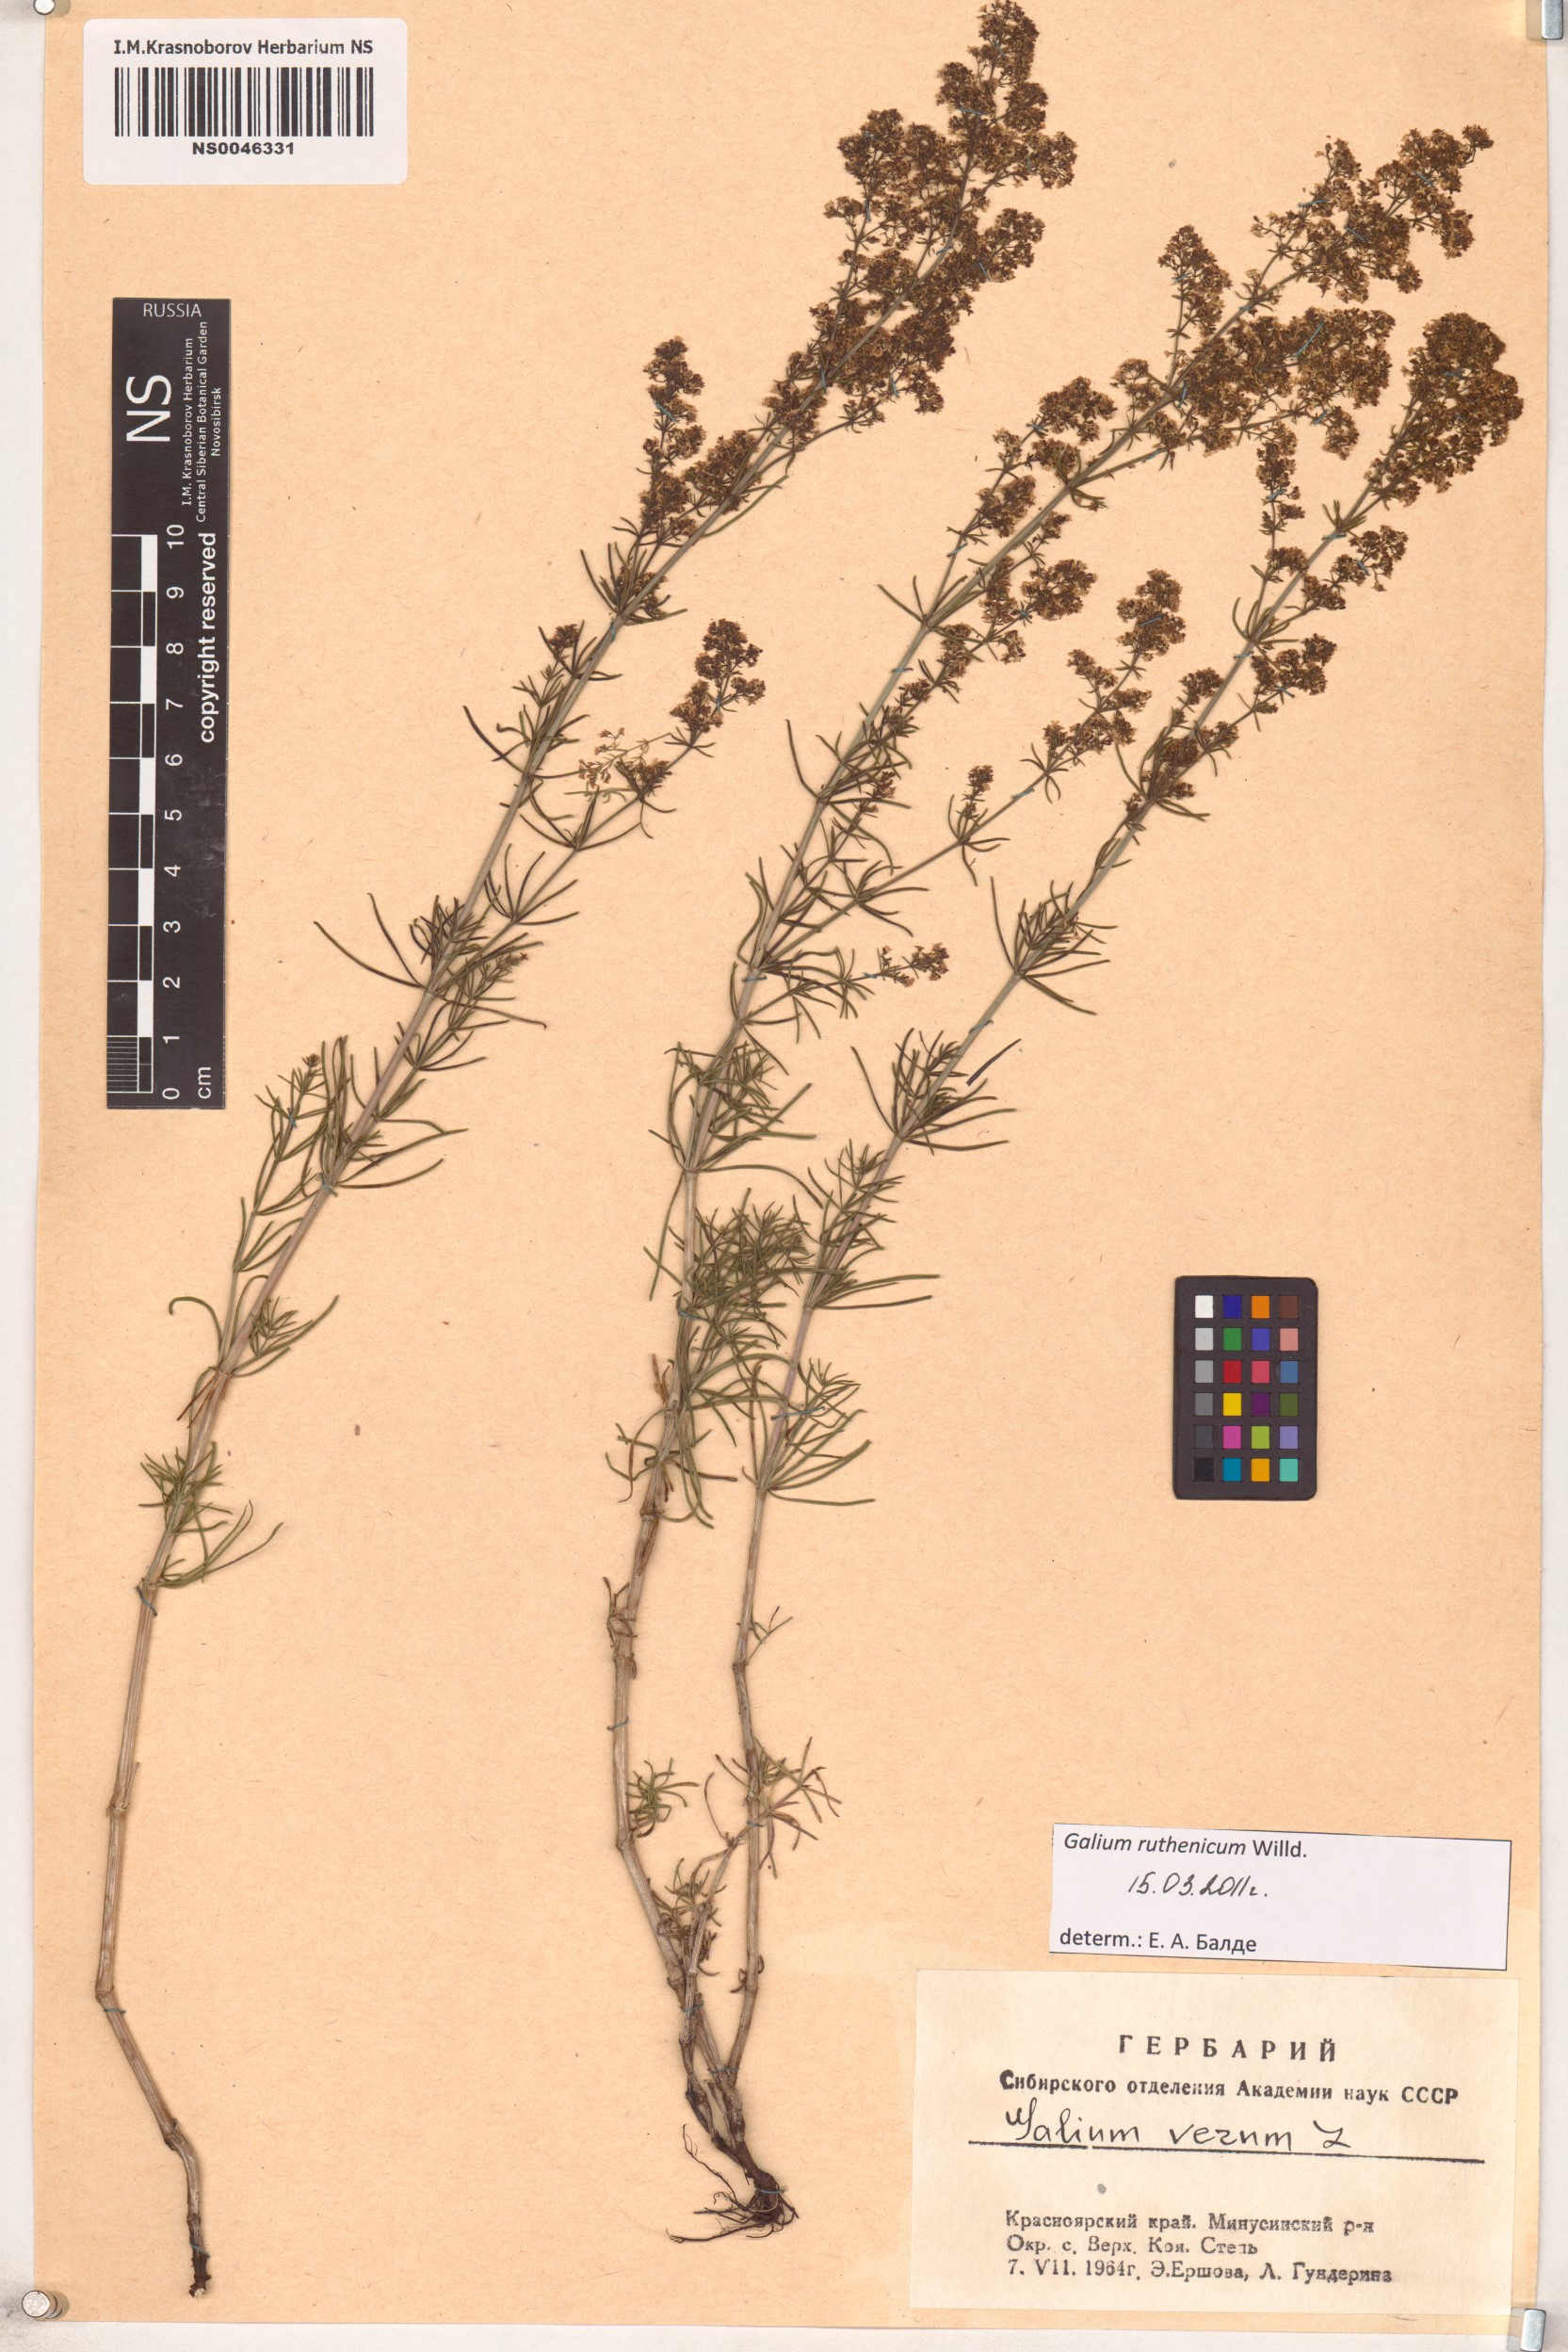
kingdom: Plantae
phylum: Tracheophyta
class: Magnoliopsida
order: Gentianales
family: Rubiaceae
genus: Galium
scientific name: Galium verum
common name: Lady's bedstraw
